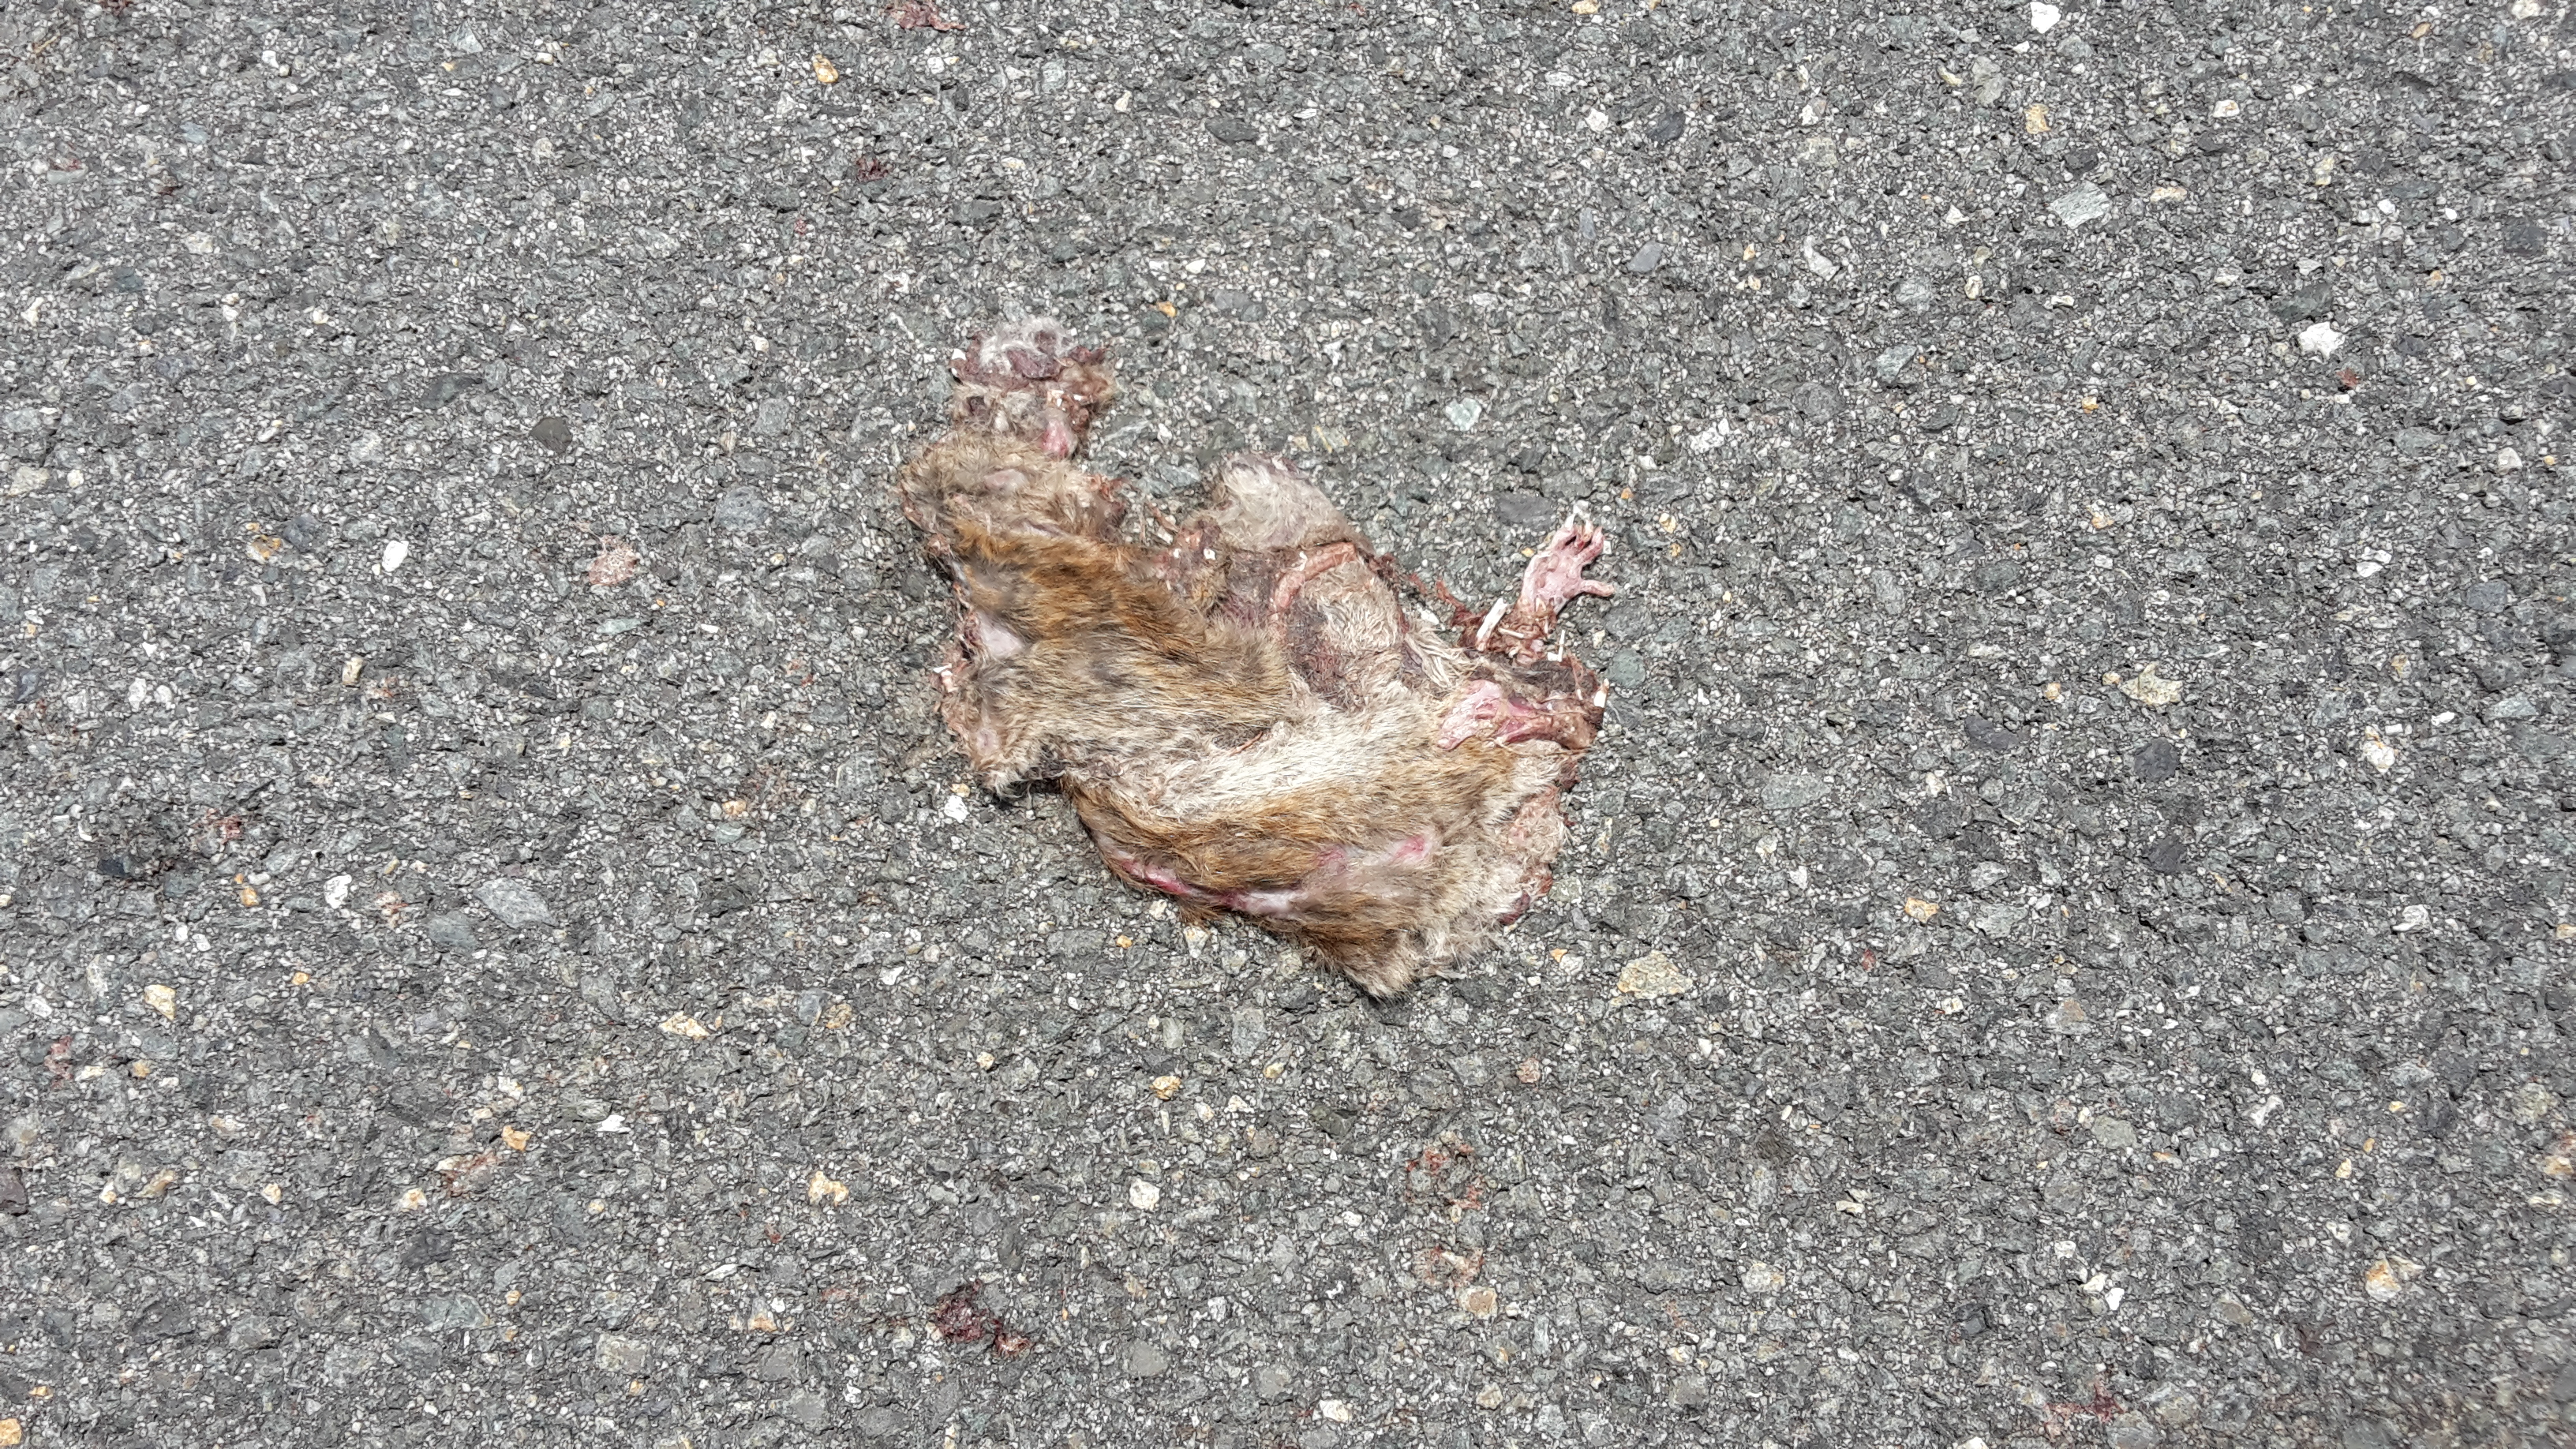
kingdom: Animalia
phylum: Chordata
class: Mammalia
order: Rodentia
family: Muridae
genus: Rattus
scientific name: Rattus norvegicus
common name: Brown rat
